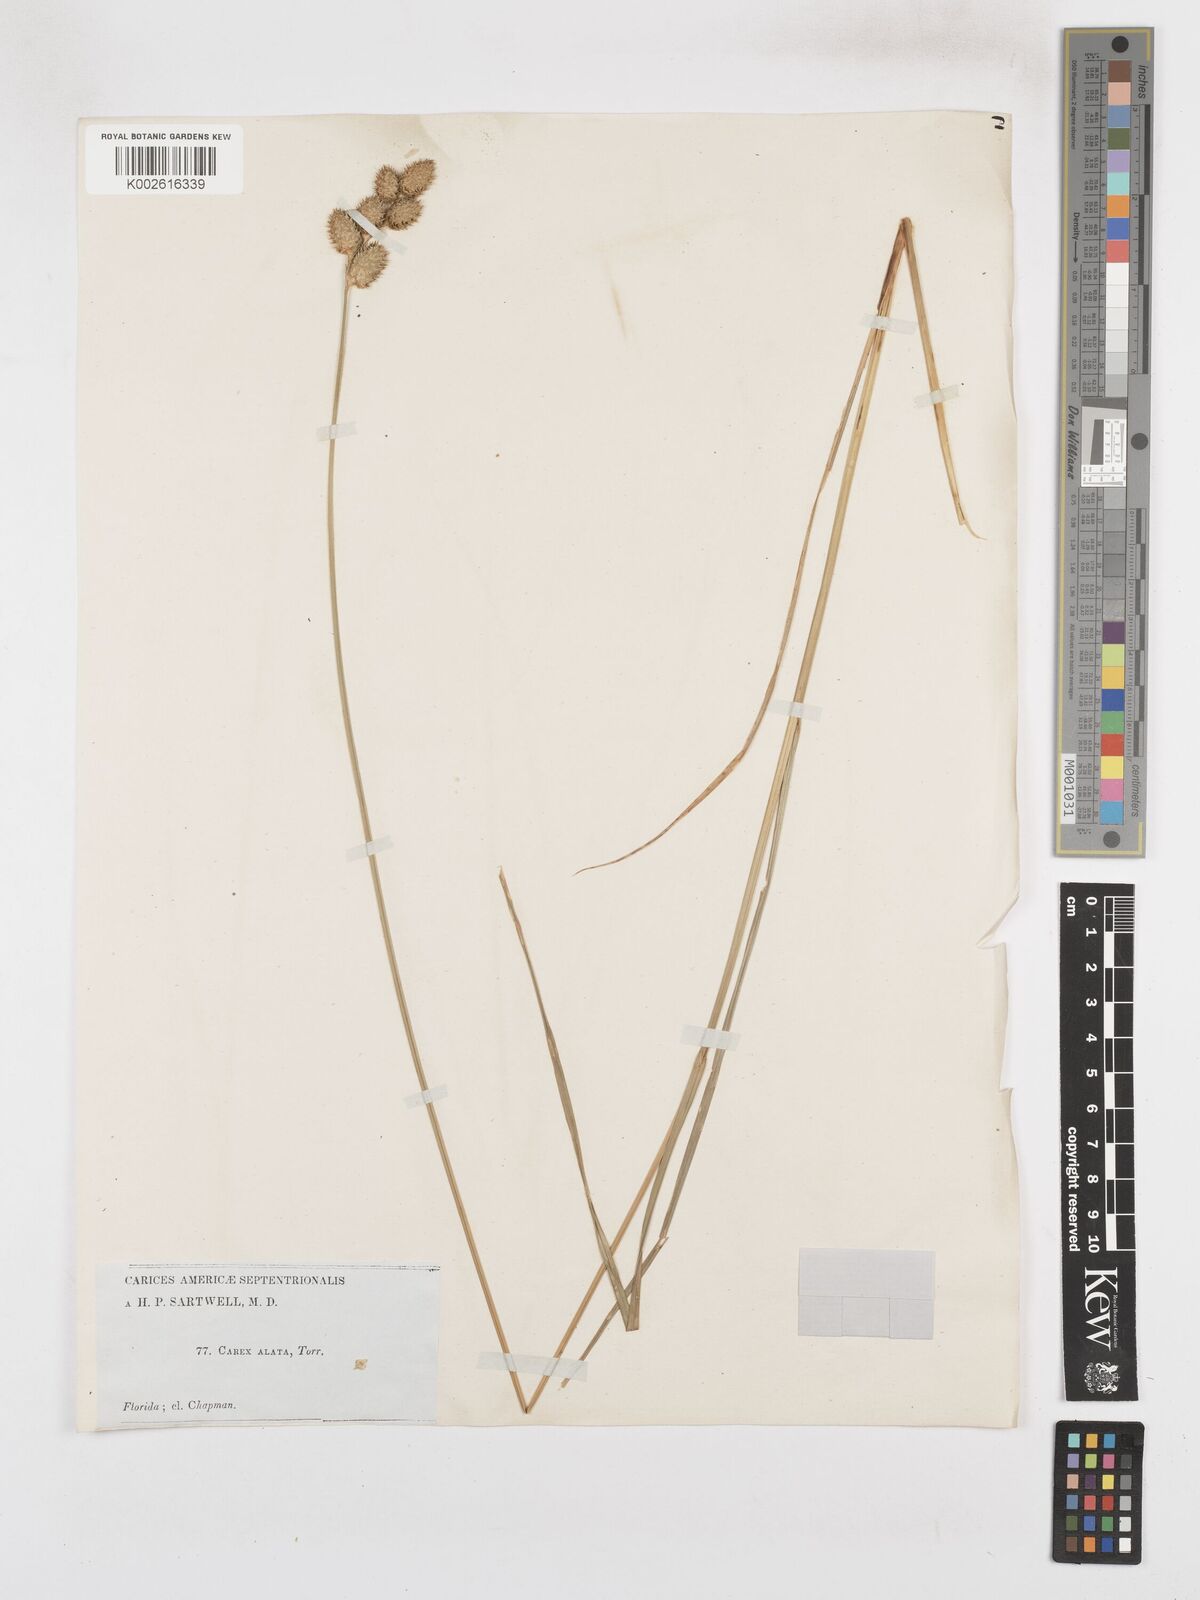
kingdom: Plantae
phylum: Tracheophyta
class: Liliopsida
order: Poales
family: Cyperaceae
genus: Carex
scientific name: Carex alata
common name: Broad-winged sedge
